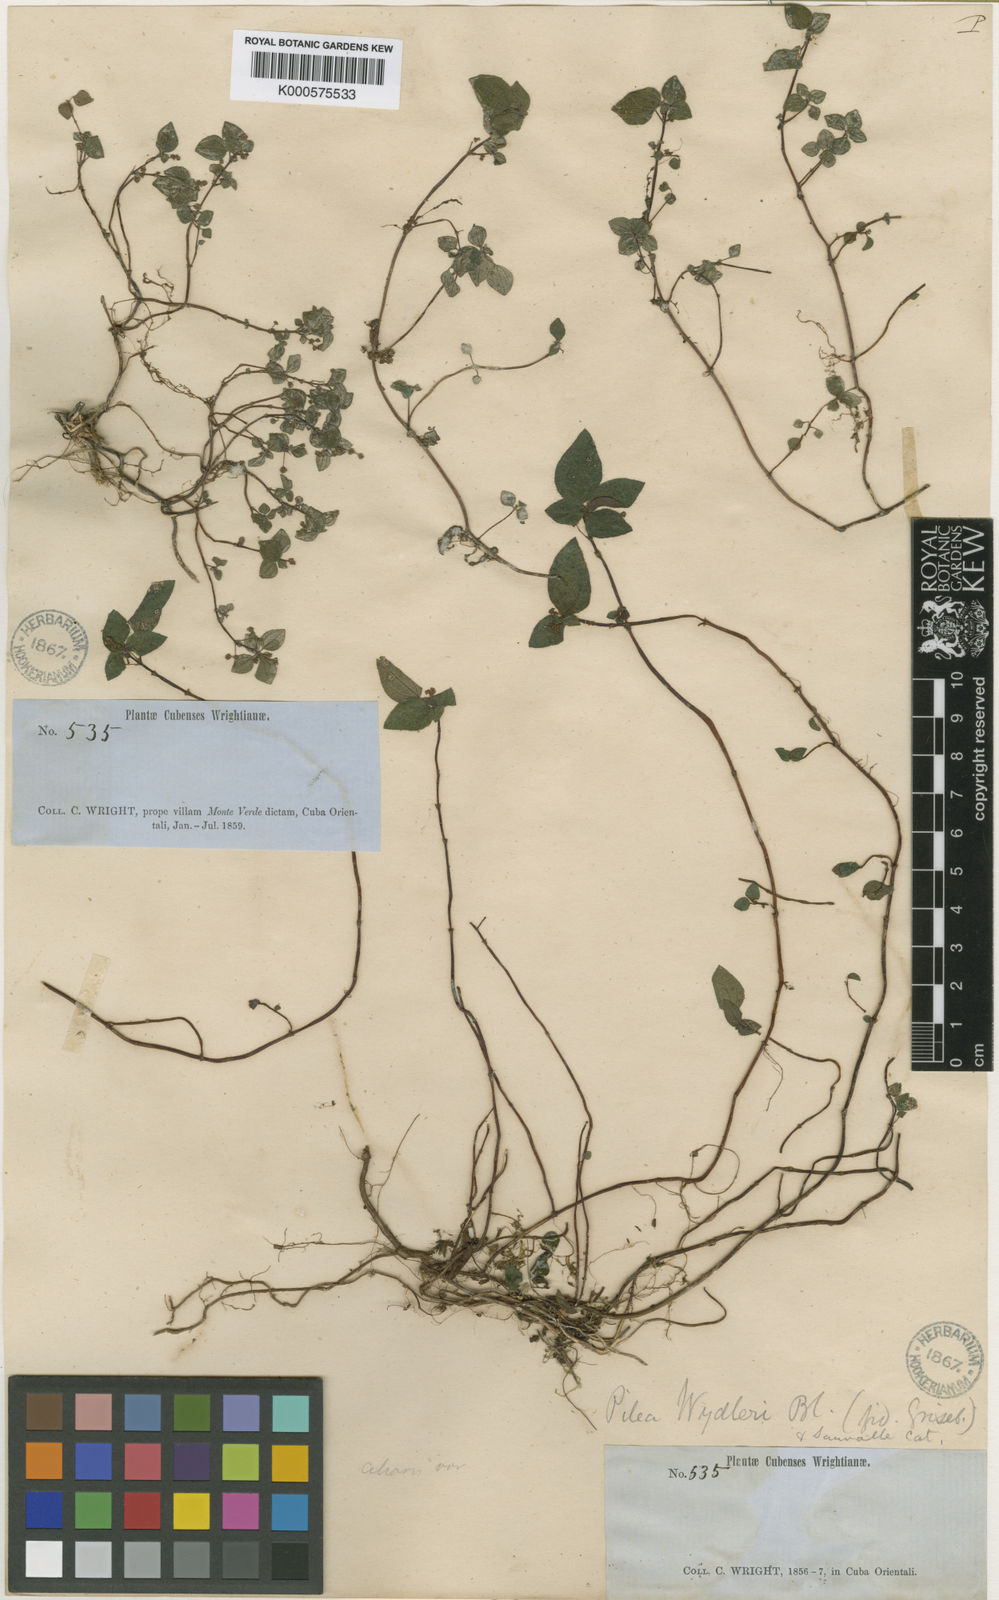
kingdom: Plantae
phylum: Tracheophyta
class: Magnoliopsida
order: Rosales
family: Urticaceae
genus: Pilea
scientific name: Pilea parietaria
